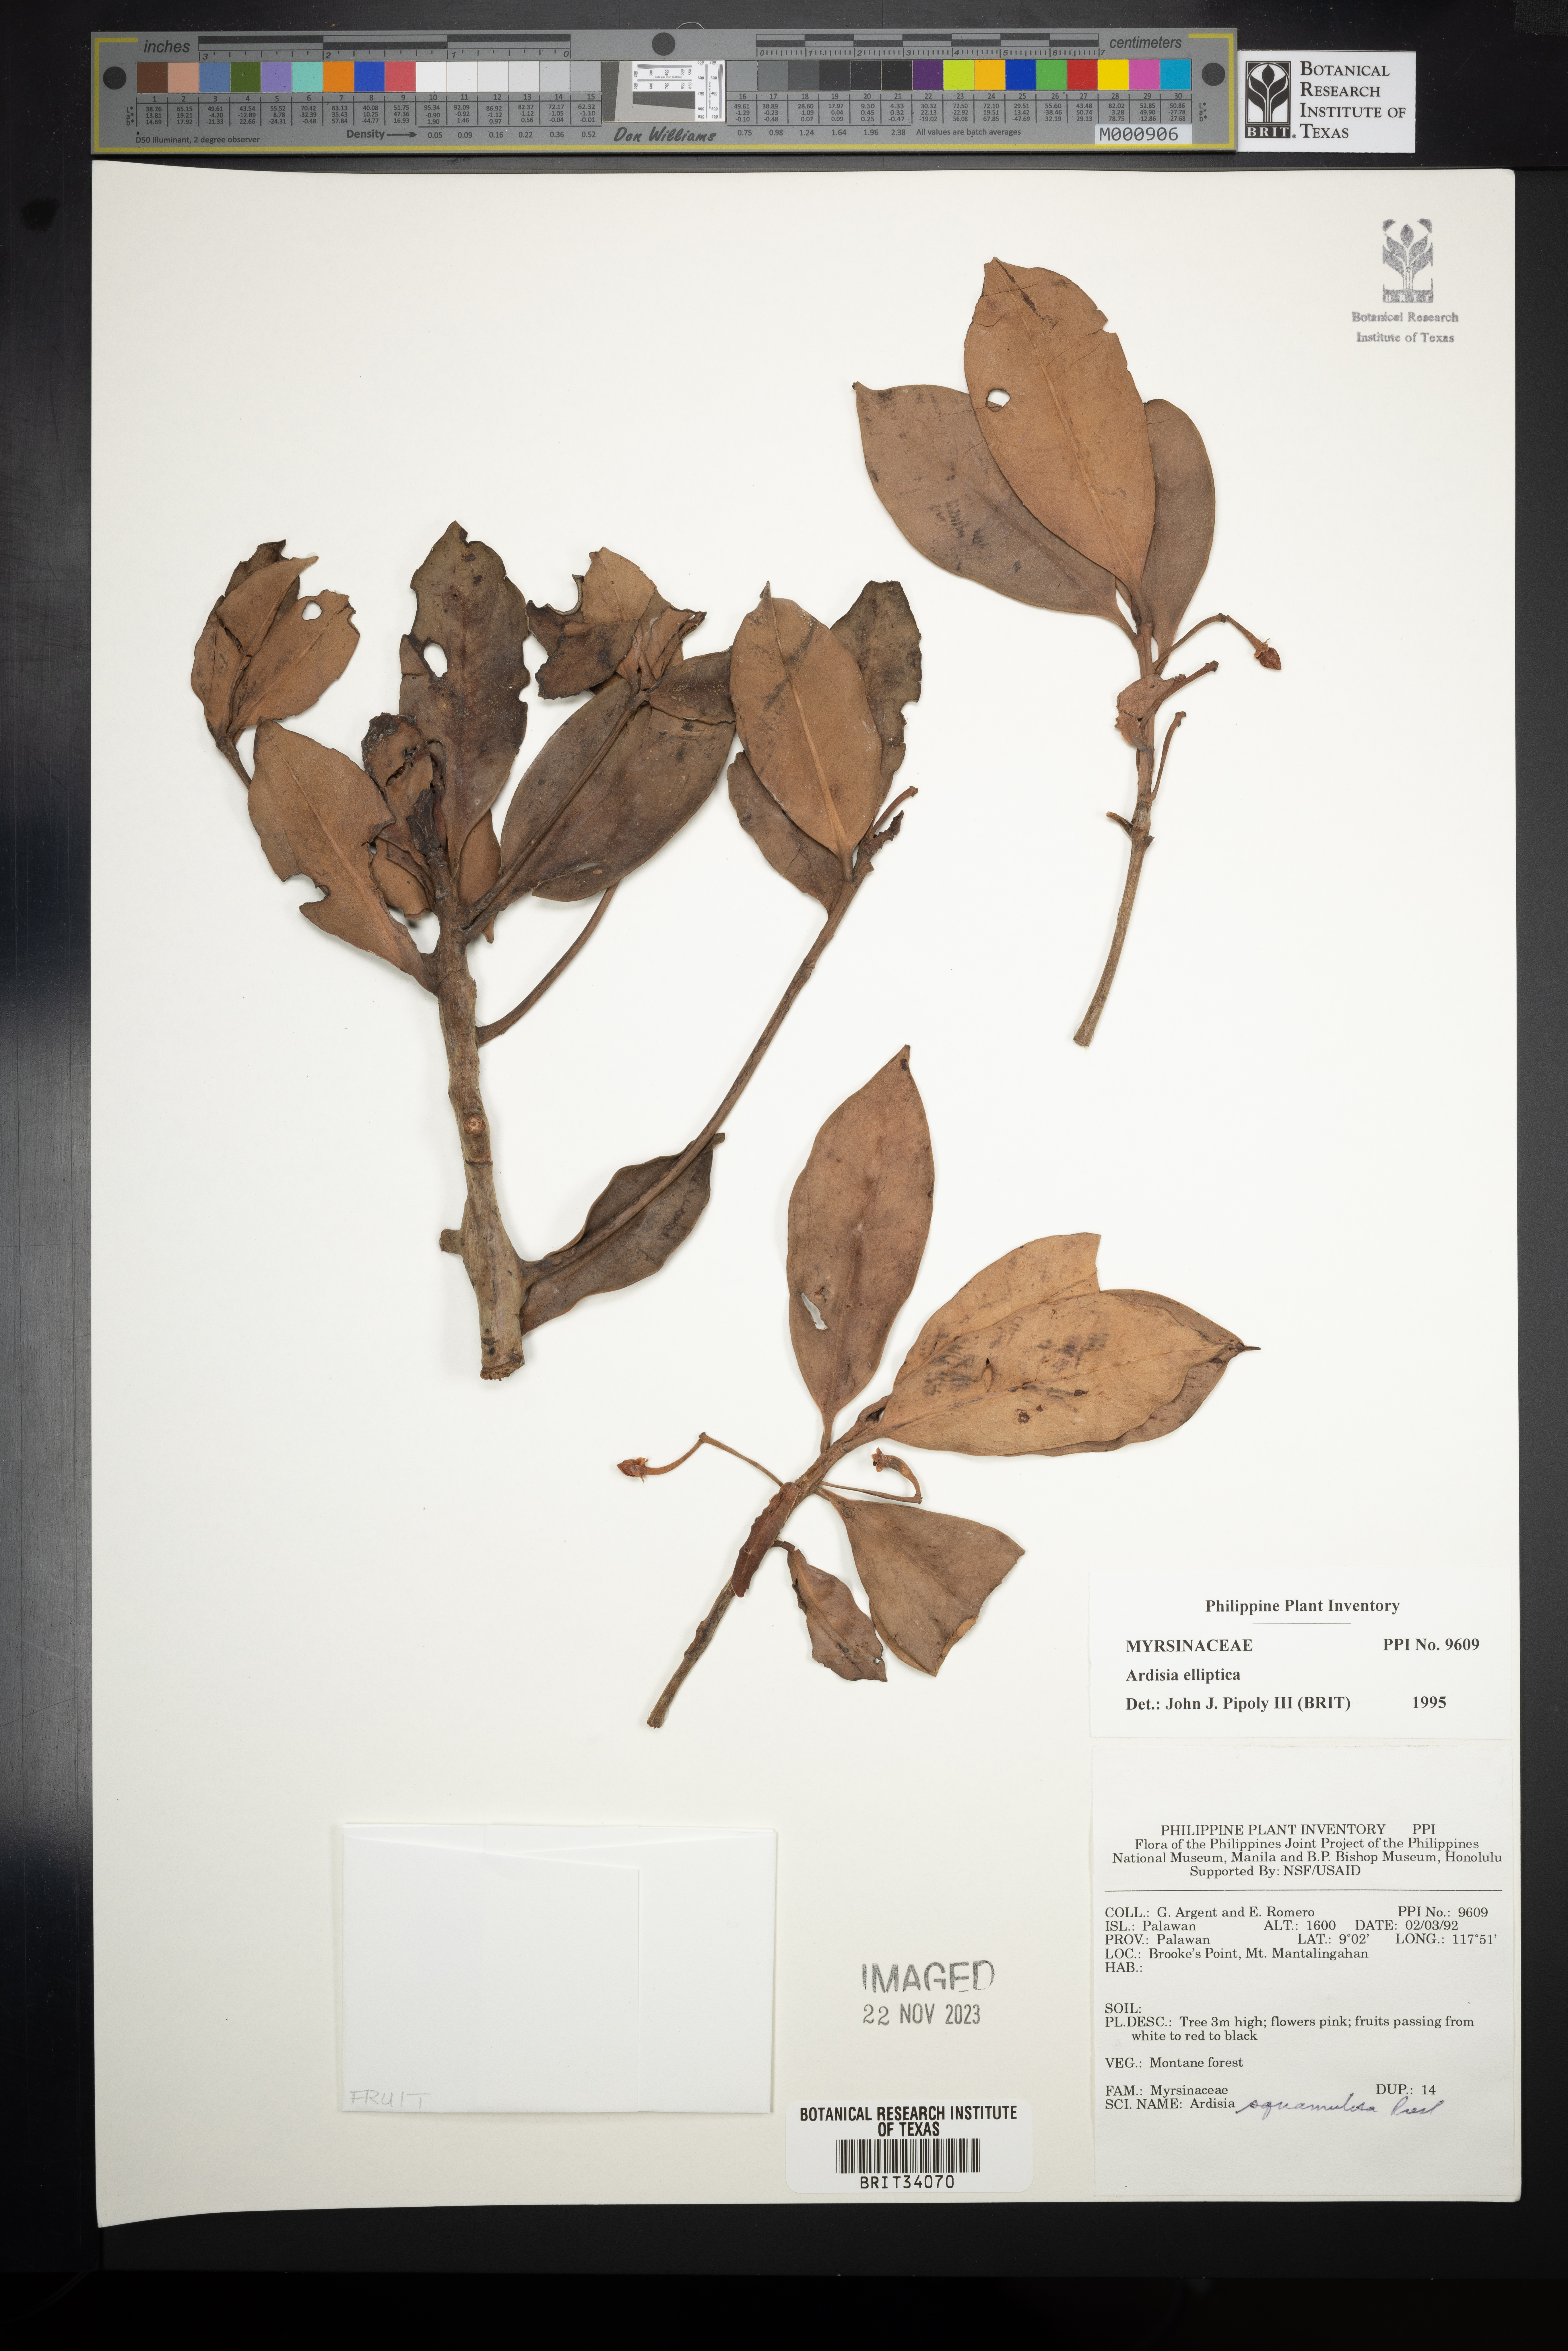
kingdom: Plantae
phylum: Tracheophyta
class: Magnoliopsida
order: Ericales
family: Primulaceae
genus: Ardisia
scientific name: Ardisia elliptica
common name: Shoebutton
